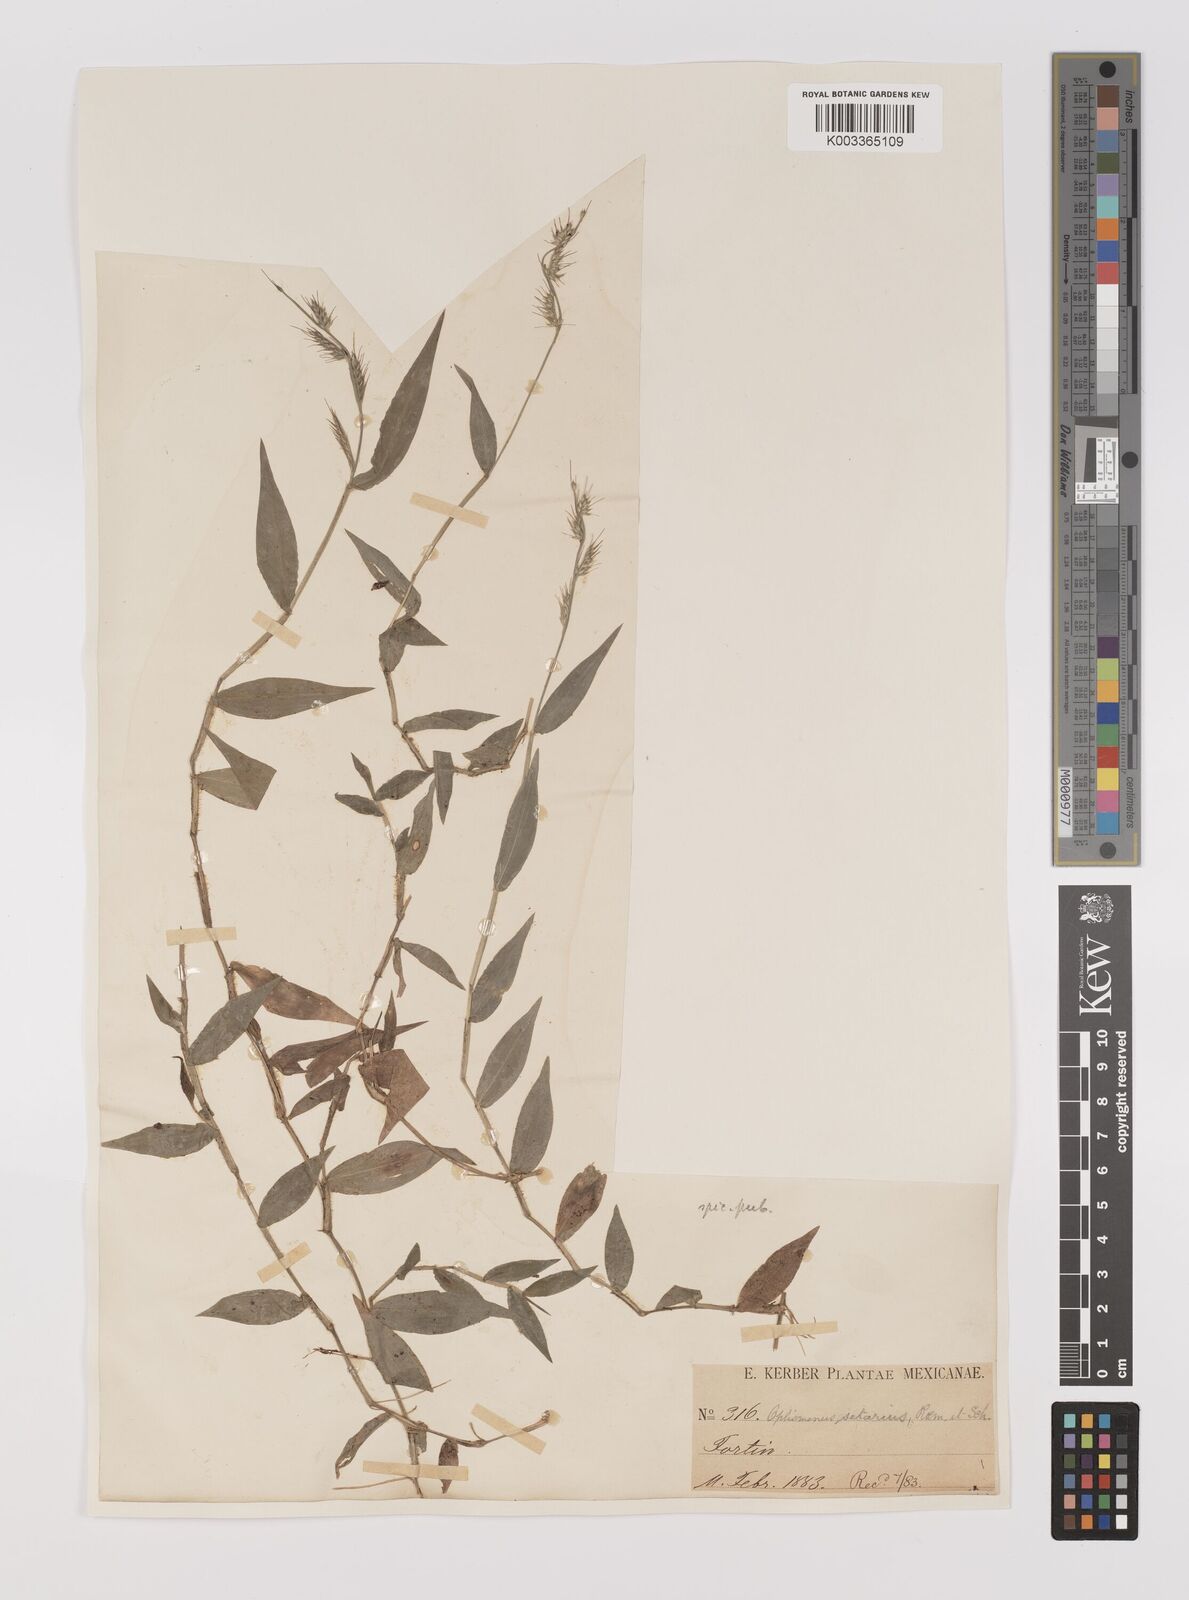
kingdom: Plantae
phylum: Tracheophyta
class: Liliopsida
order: Poales
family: Poaceae
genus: Oplismenus
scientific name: Oplismenus hirtellus
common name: Basketgrass
